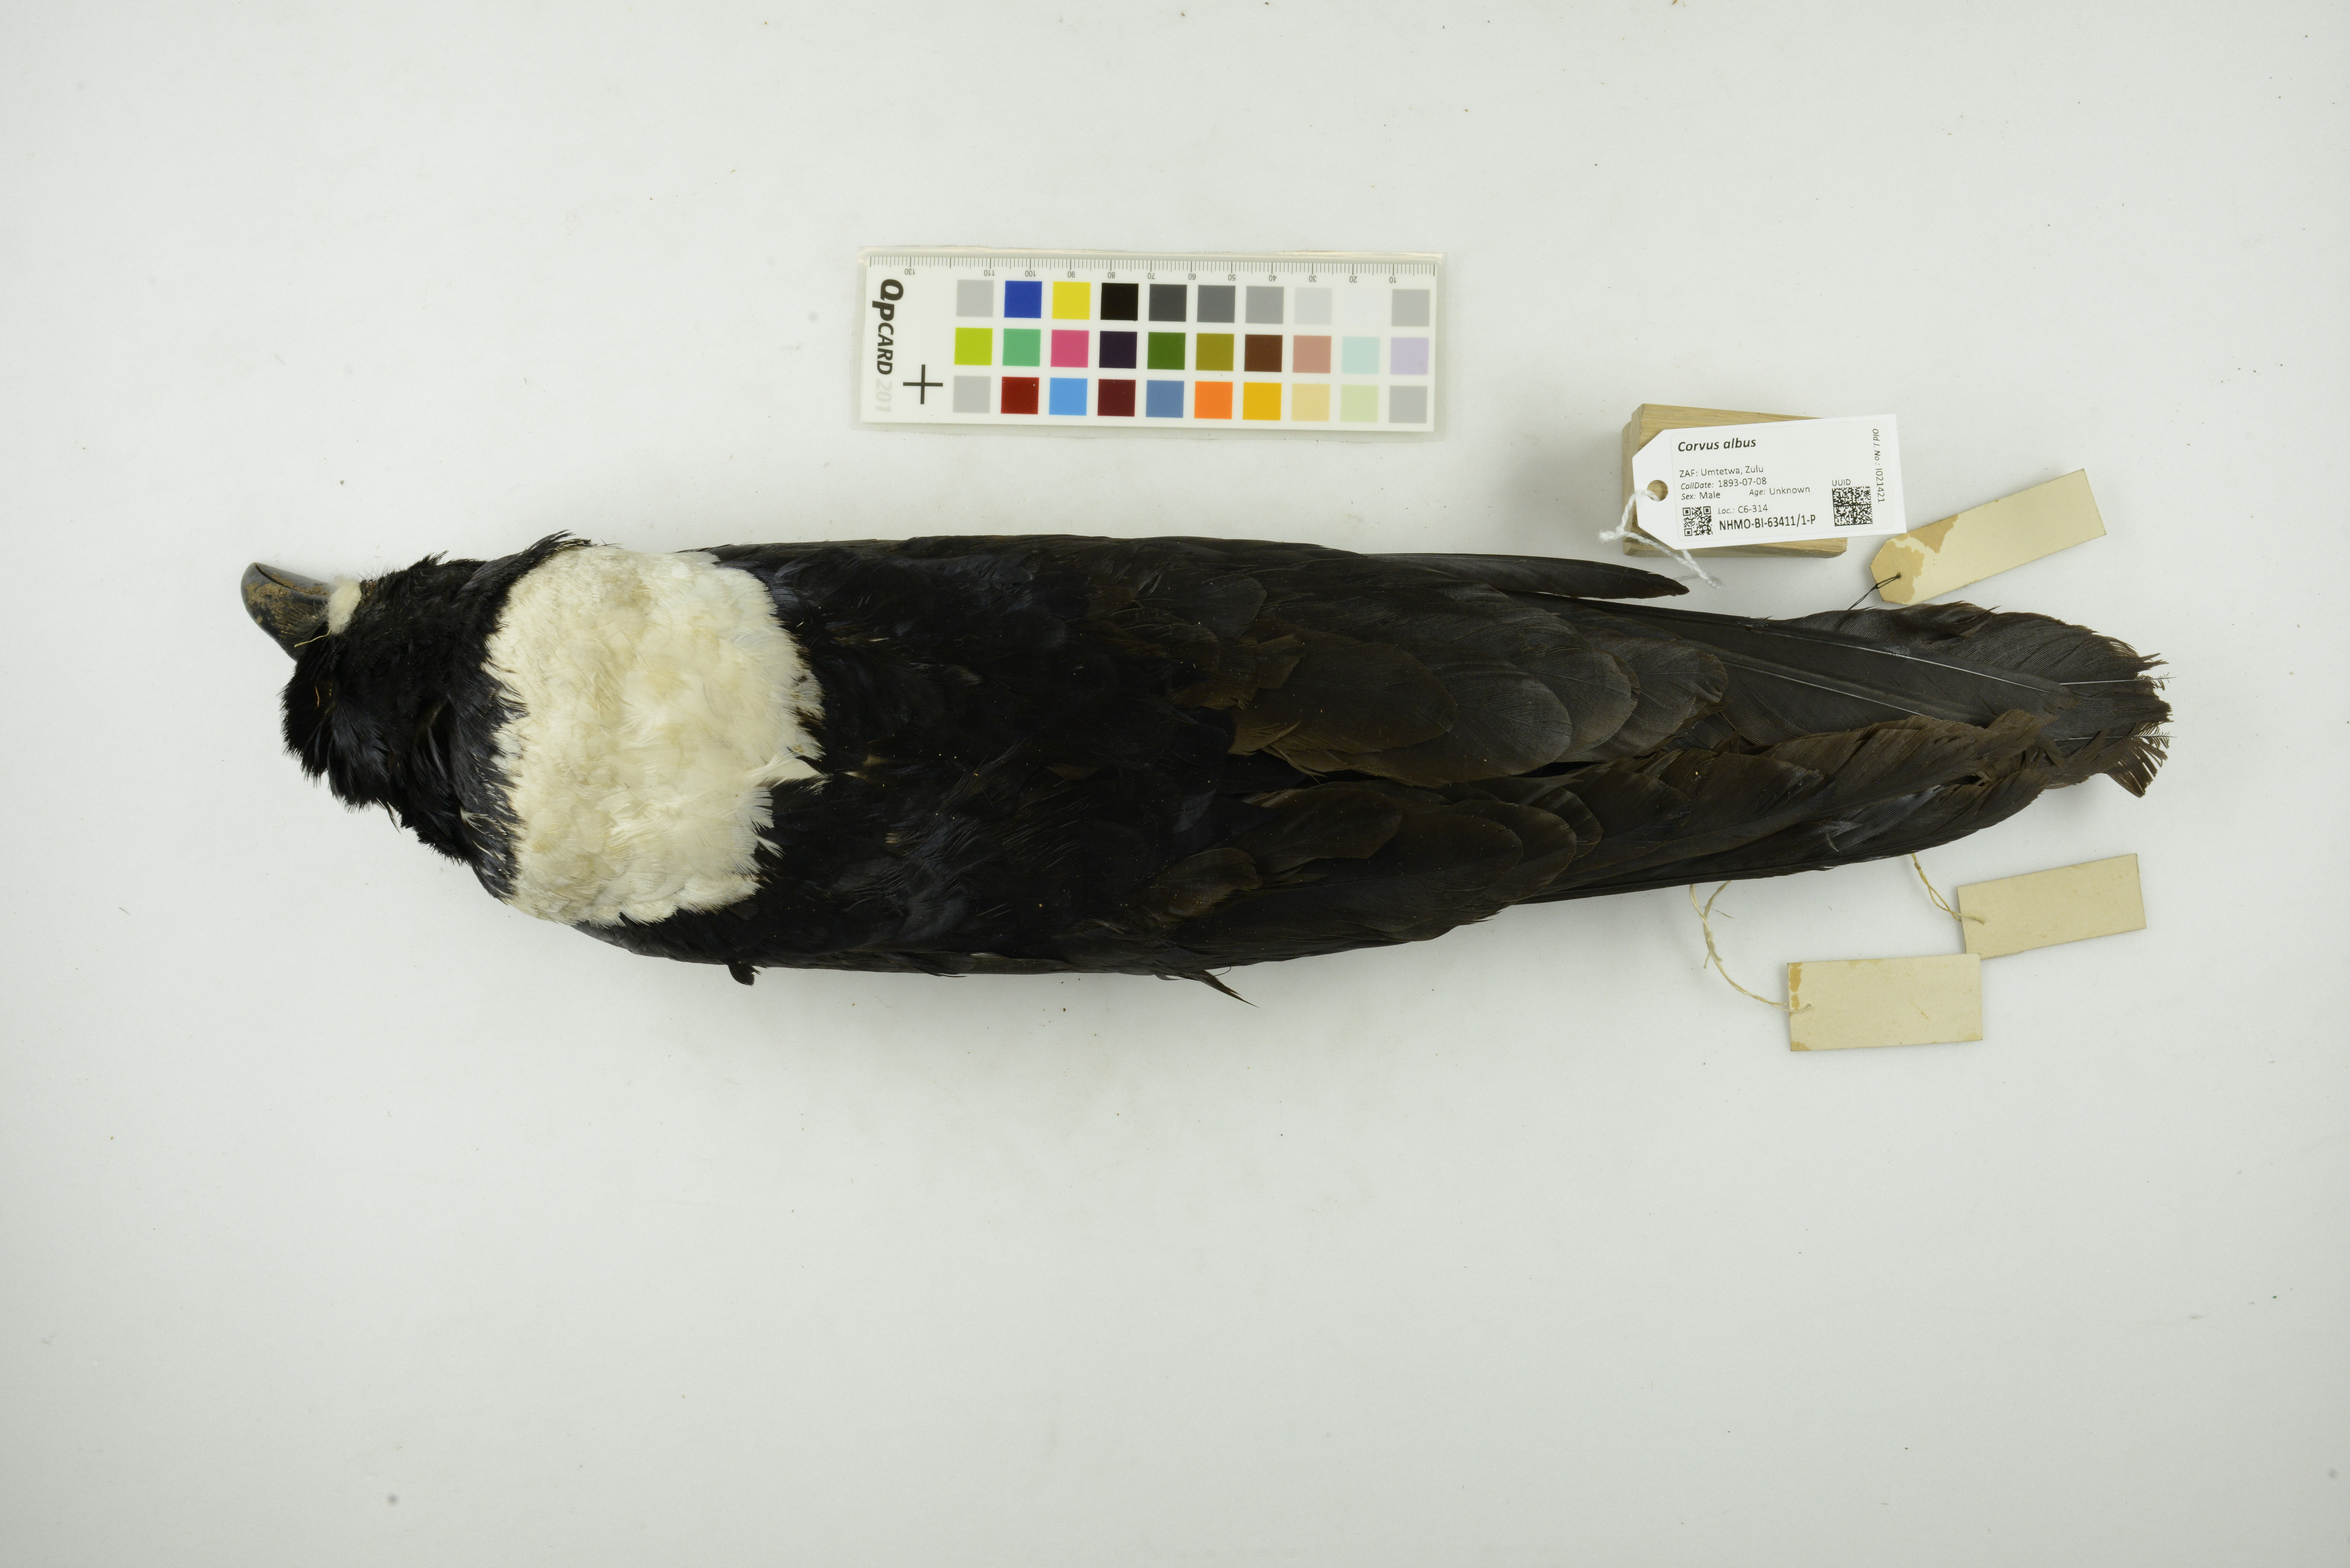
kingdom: Animalia
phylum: Chordata
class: Aves
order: Passeriformes
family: Corvidae
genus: Corvus
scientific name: Corvus albus
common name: Pied crow
